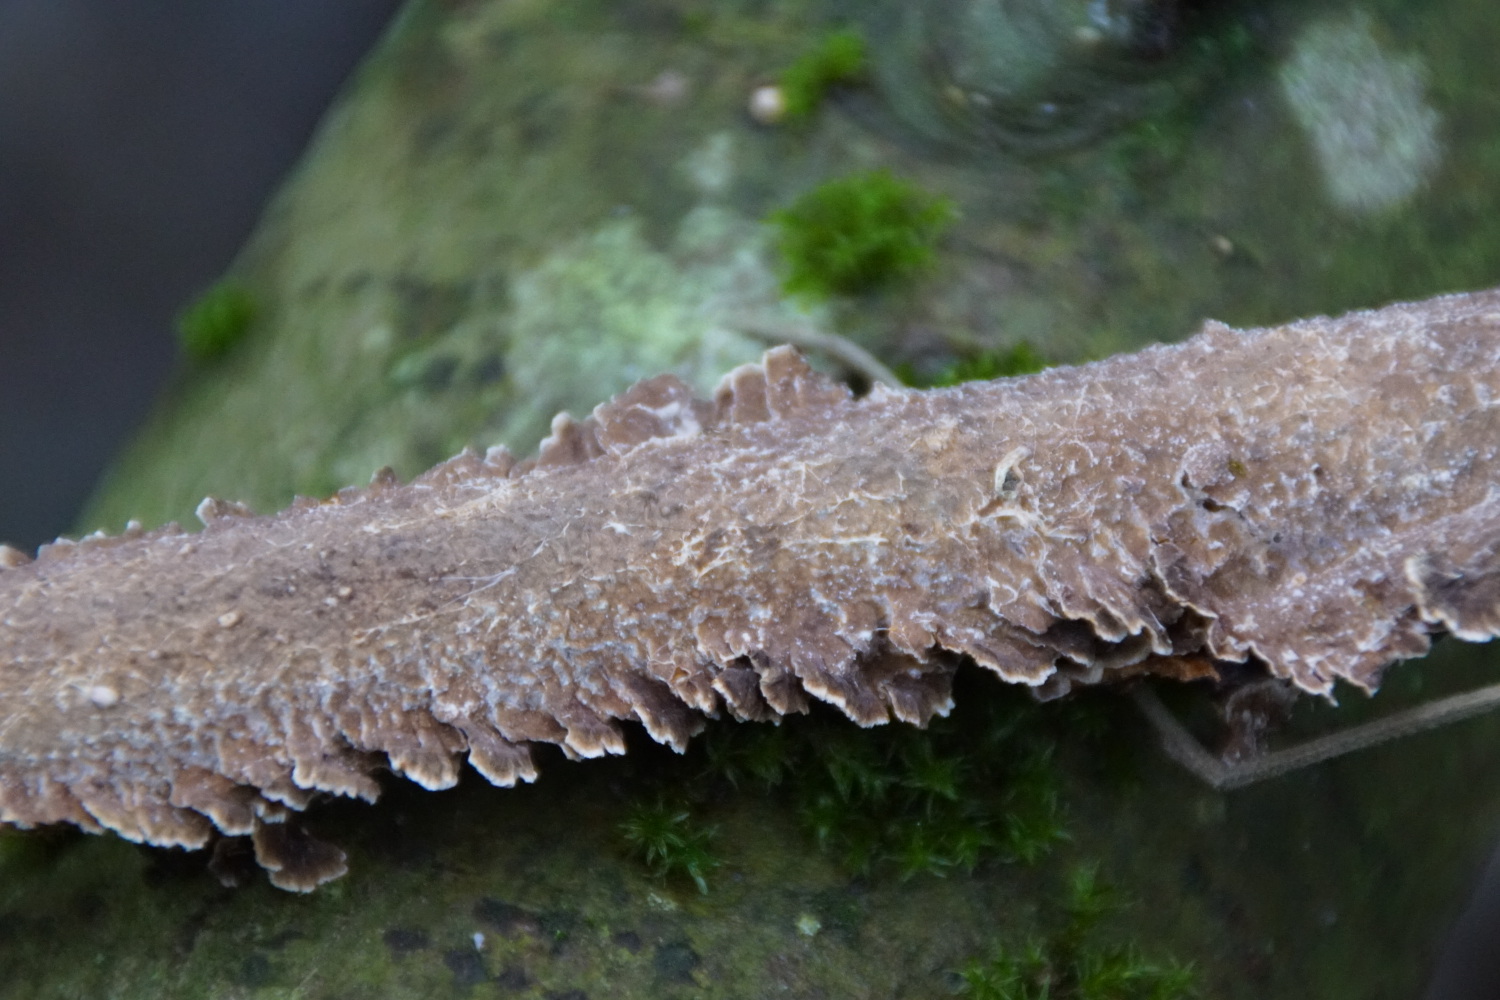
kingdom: Fungi
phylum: Basidiomycota
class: Agaricomycetes
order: Hymenochaetales
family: Hymenochaetaceae
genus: Hydnoporia
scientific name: Hydnoporia tabacina
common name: tobaksbrun ruslædersvamp
